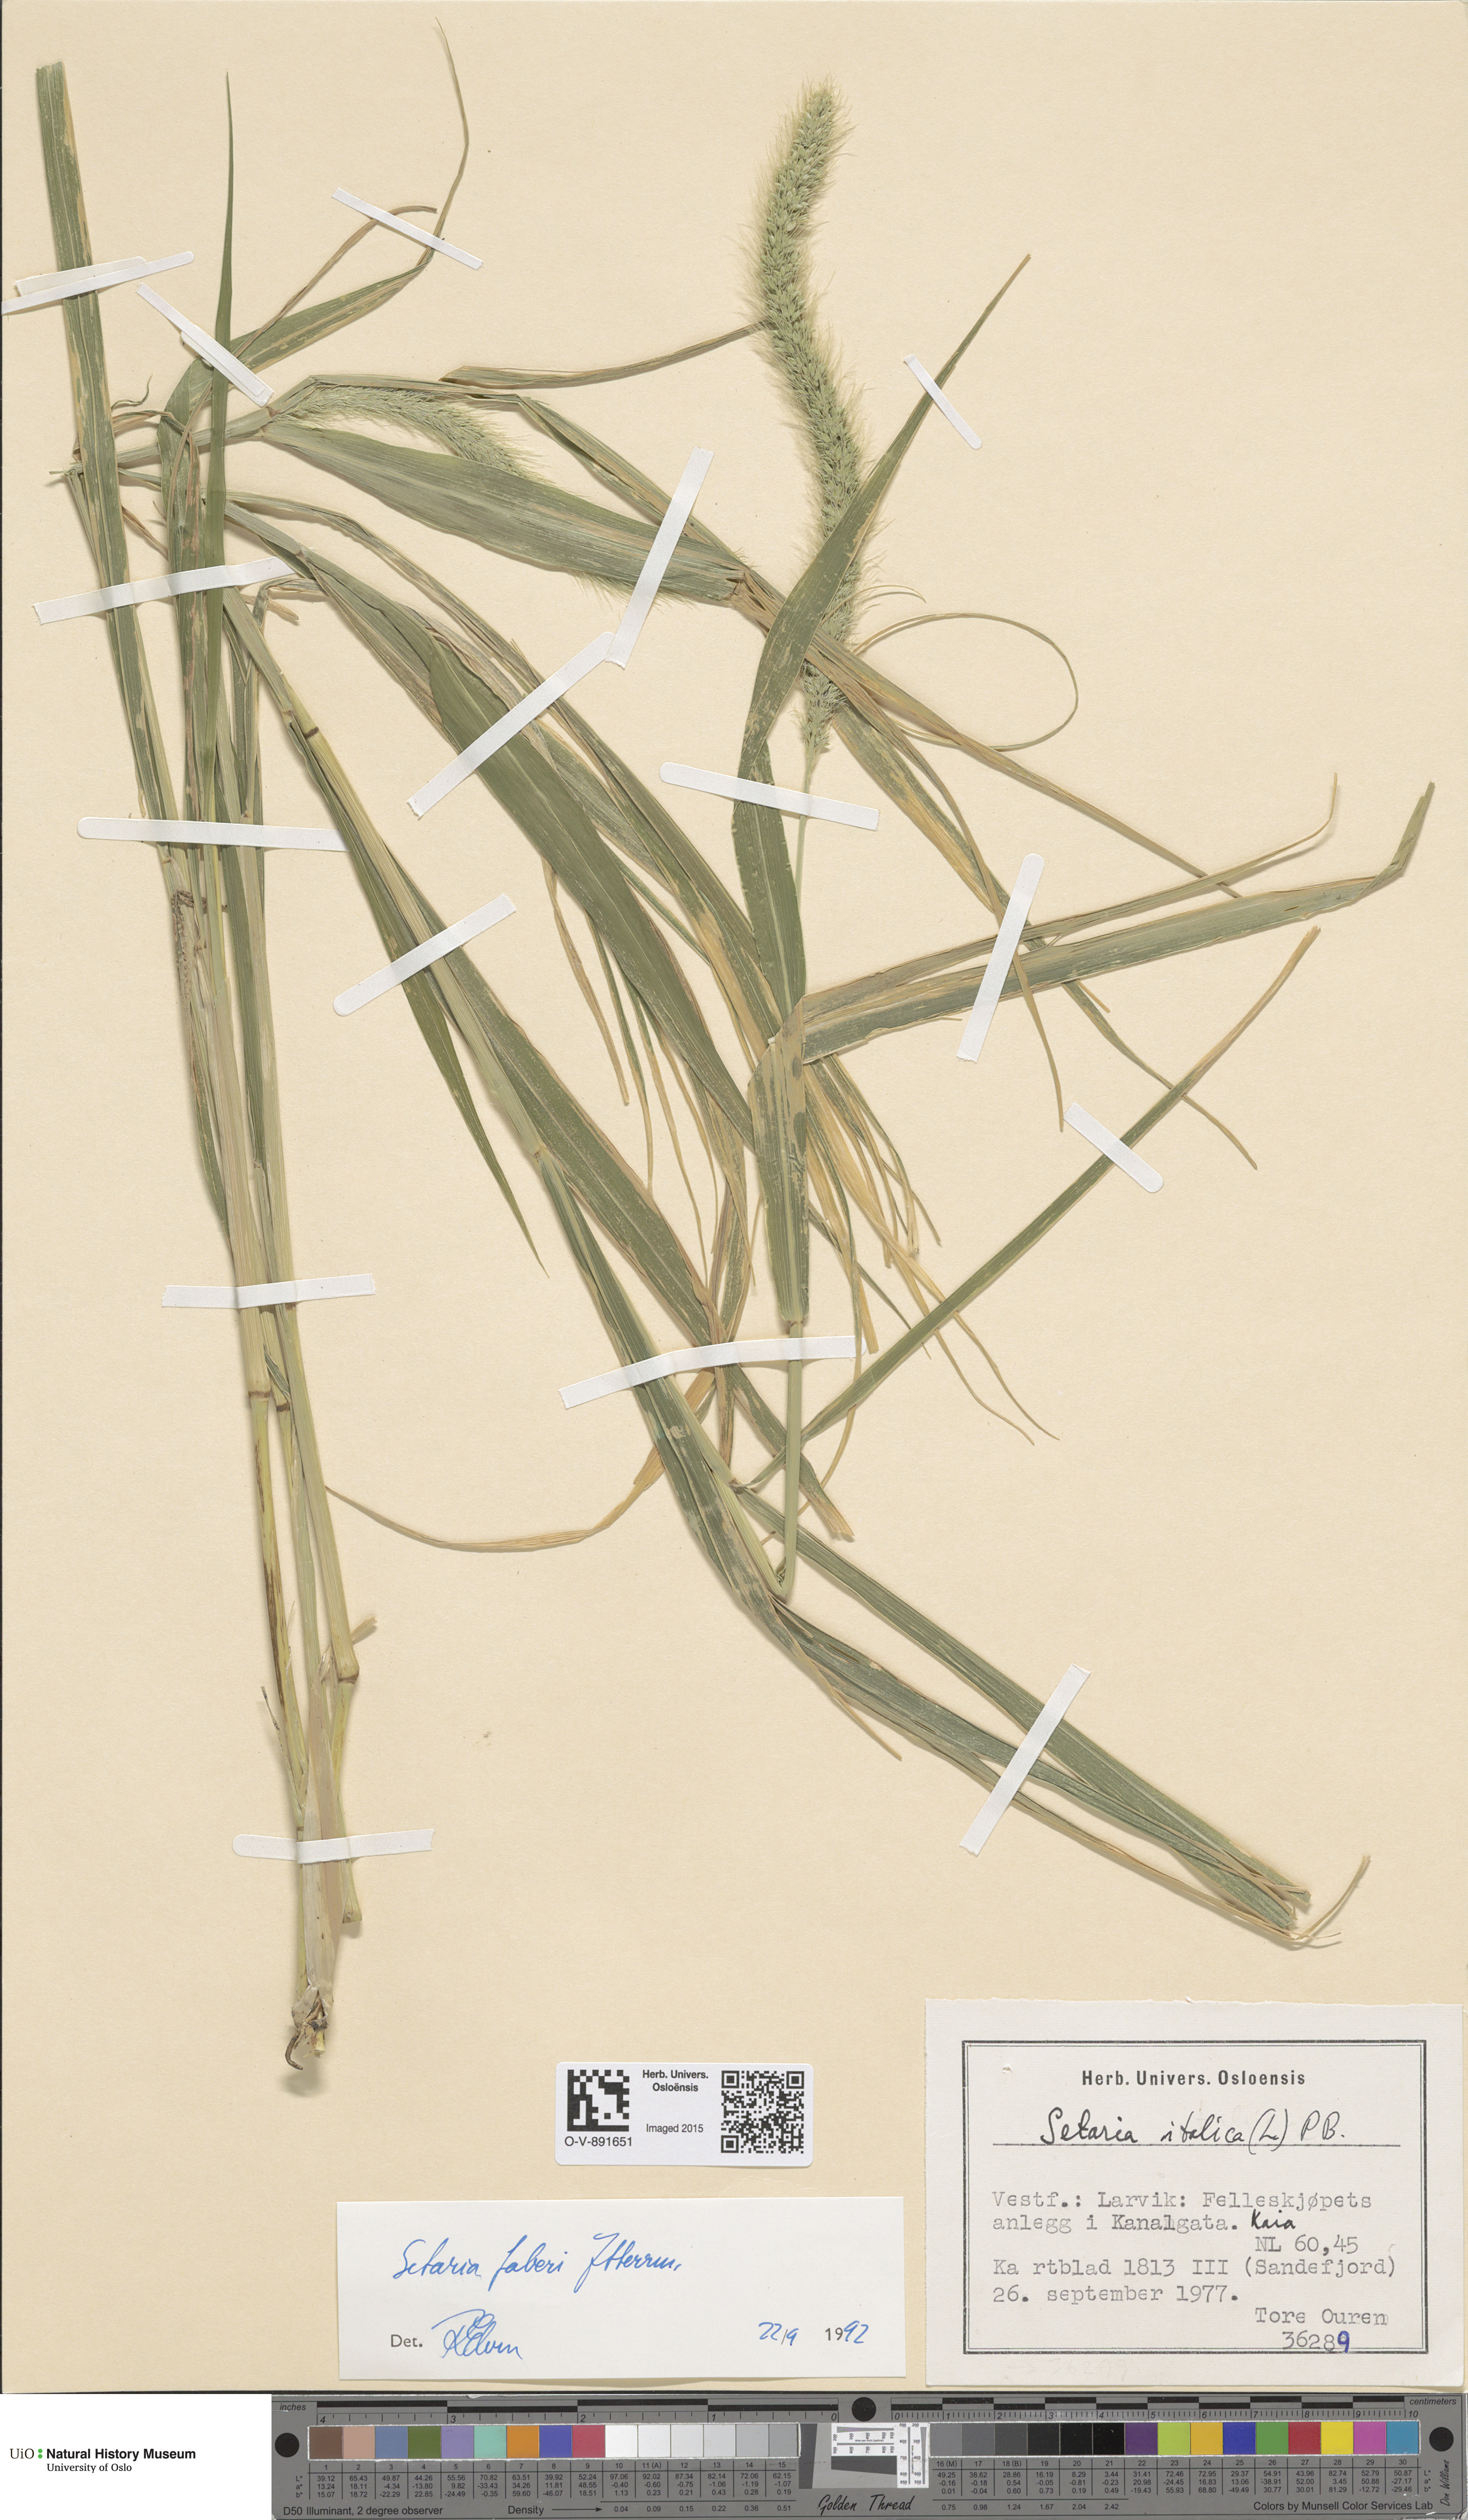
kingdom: Plantae
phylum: Tracheophyta
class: Liliopsida
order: Poales
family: Poaceae
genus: Setaria
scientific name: Setaria faberi
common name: Nodding bristle-grass
